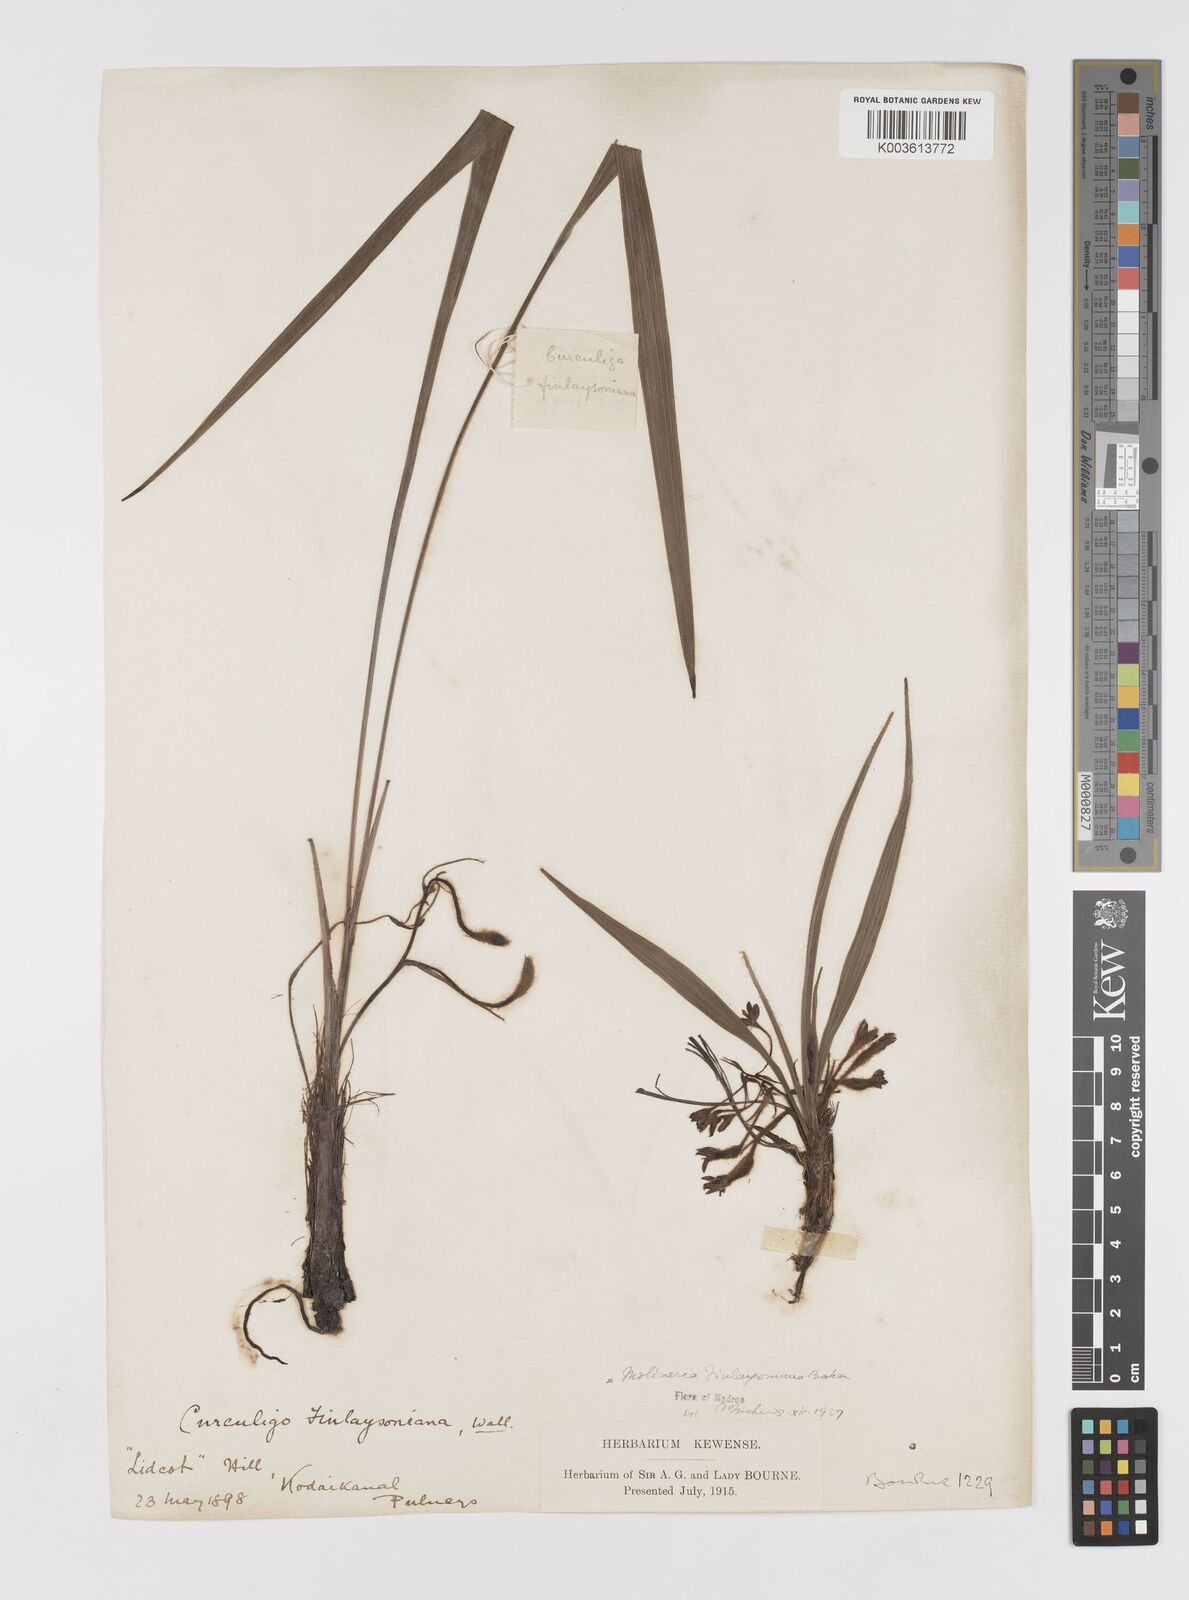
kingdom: Plantae
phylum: Tracheophyta
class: Liliopsida
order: Asparagales
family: Hypoxidaceae
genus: Curculigo
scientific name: Curculigo trichocarpa
